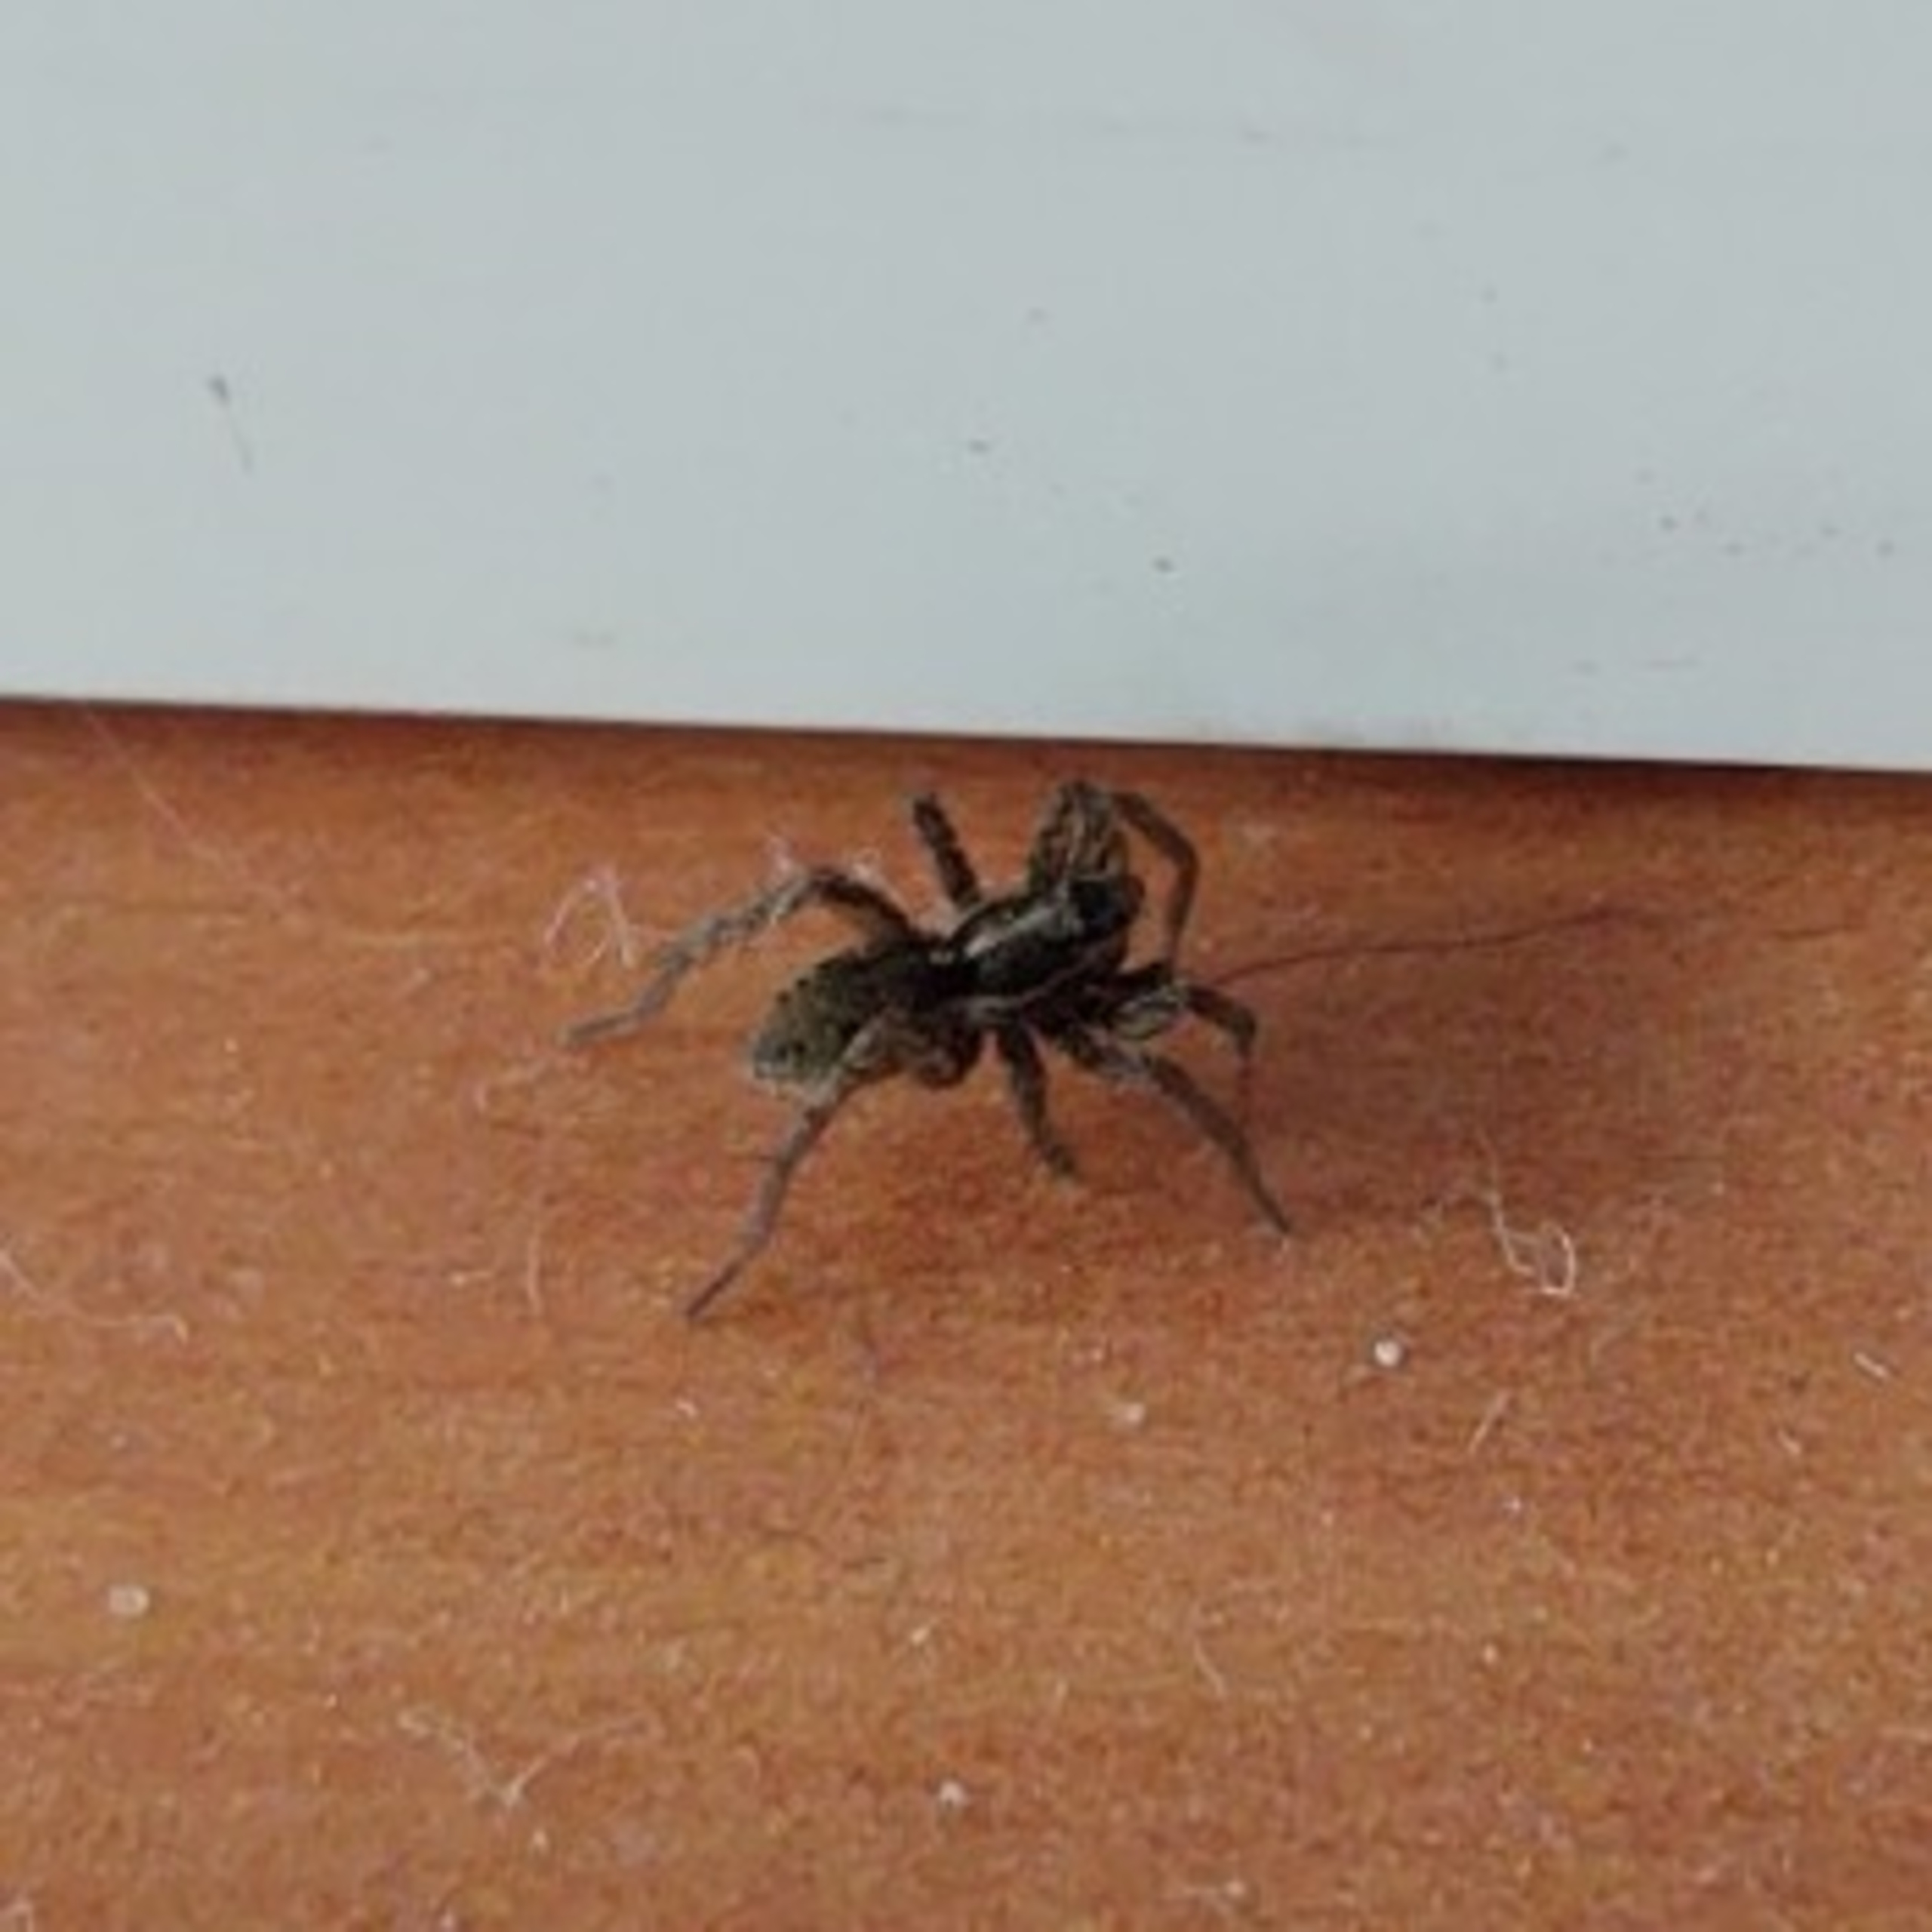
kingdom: Animalia
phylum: Arthropoda
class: Arachnida
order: Araneae
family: Lycosidae
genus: Pardosa
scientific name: Pardosa
